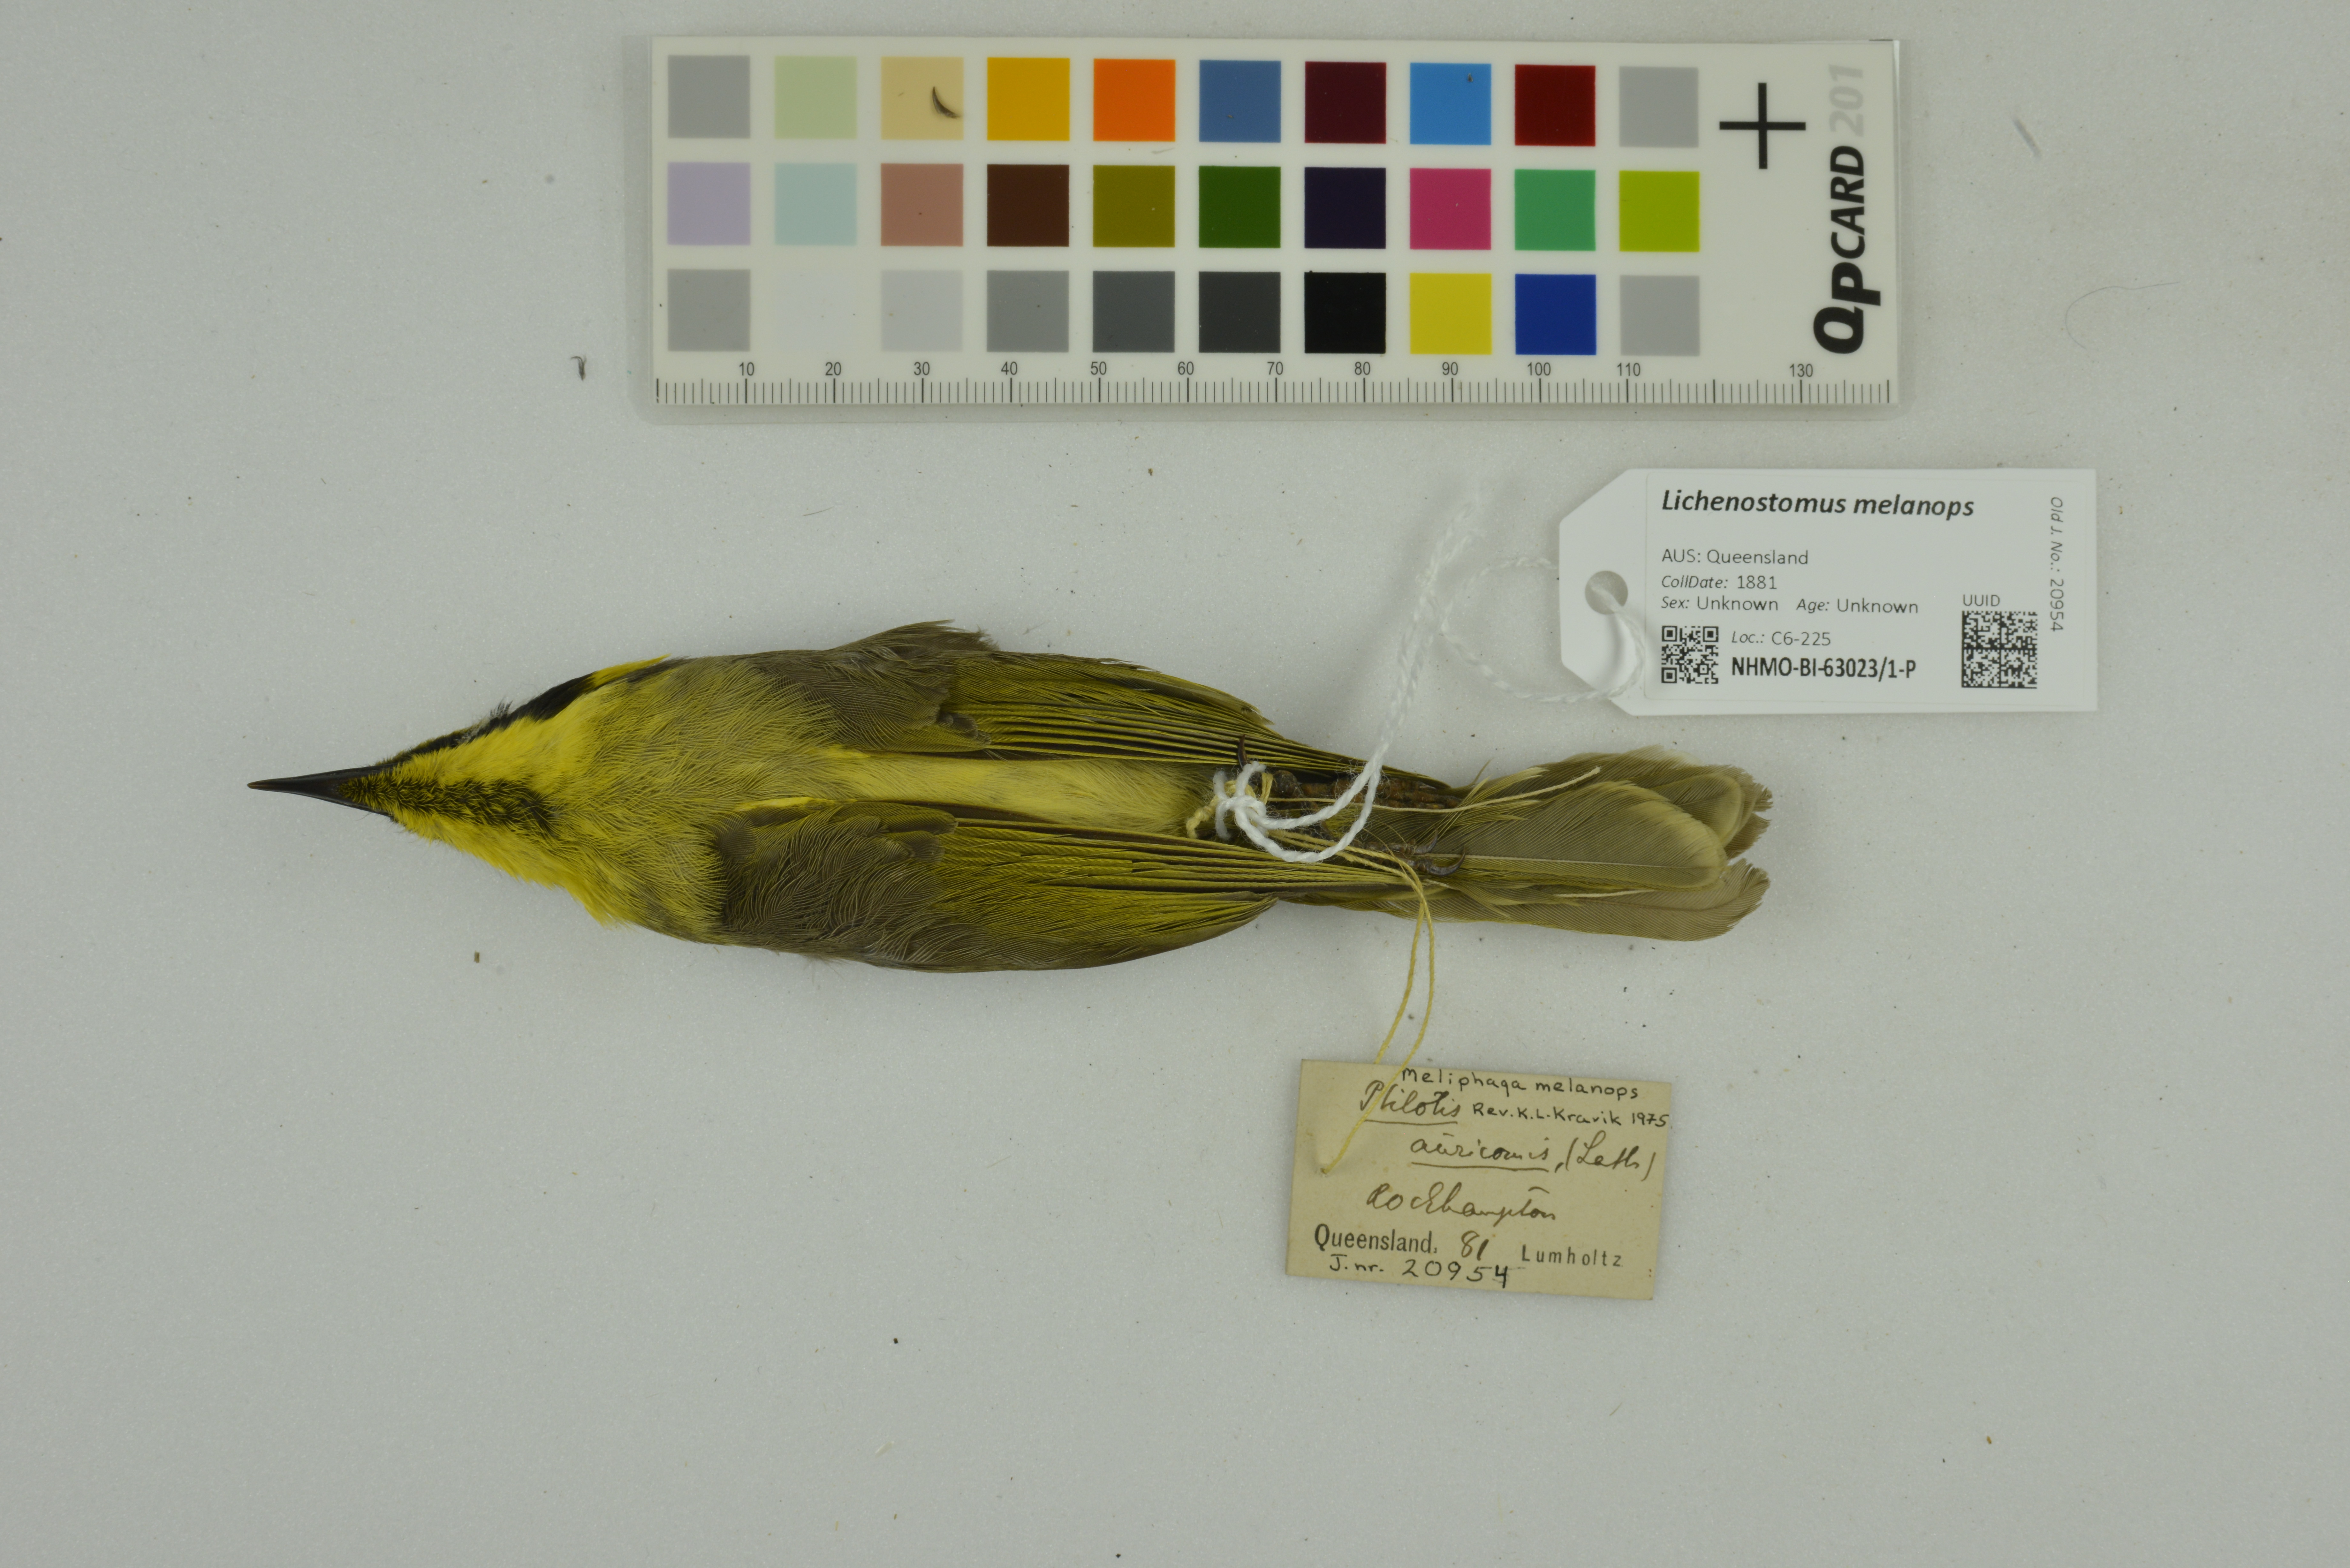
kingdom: Animalia
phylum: Chordata
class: Aves
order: Passeriformes
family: Meliphagidae
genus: Lichenostomus
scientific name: Lichenostomus melanops
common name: Yellow-tufted honeyeater
